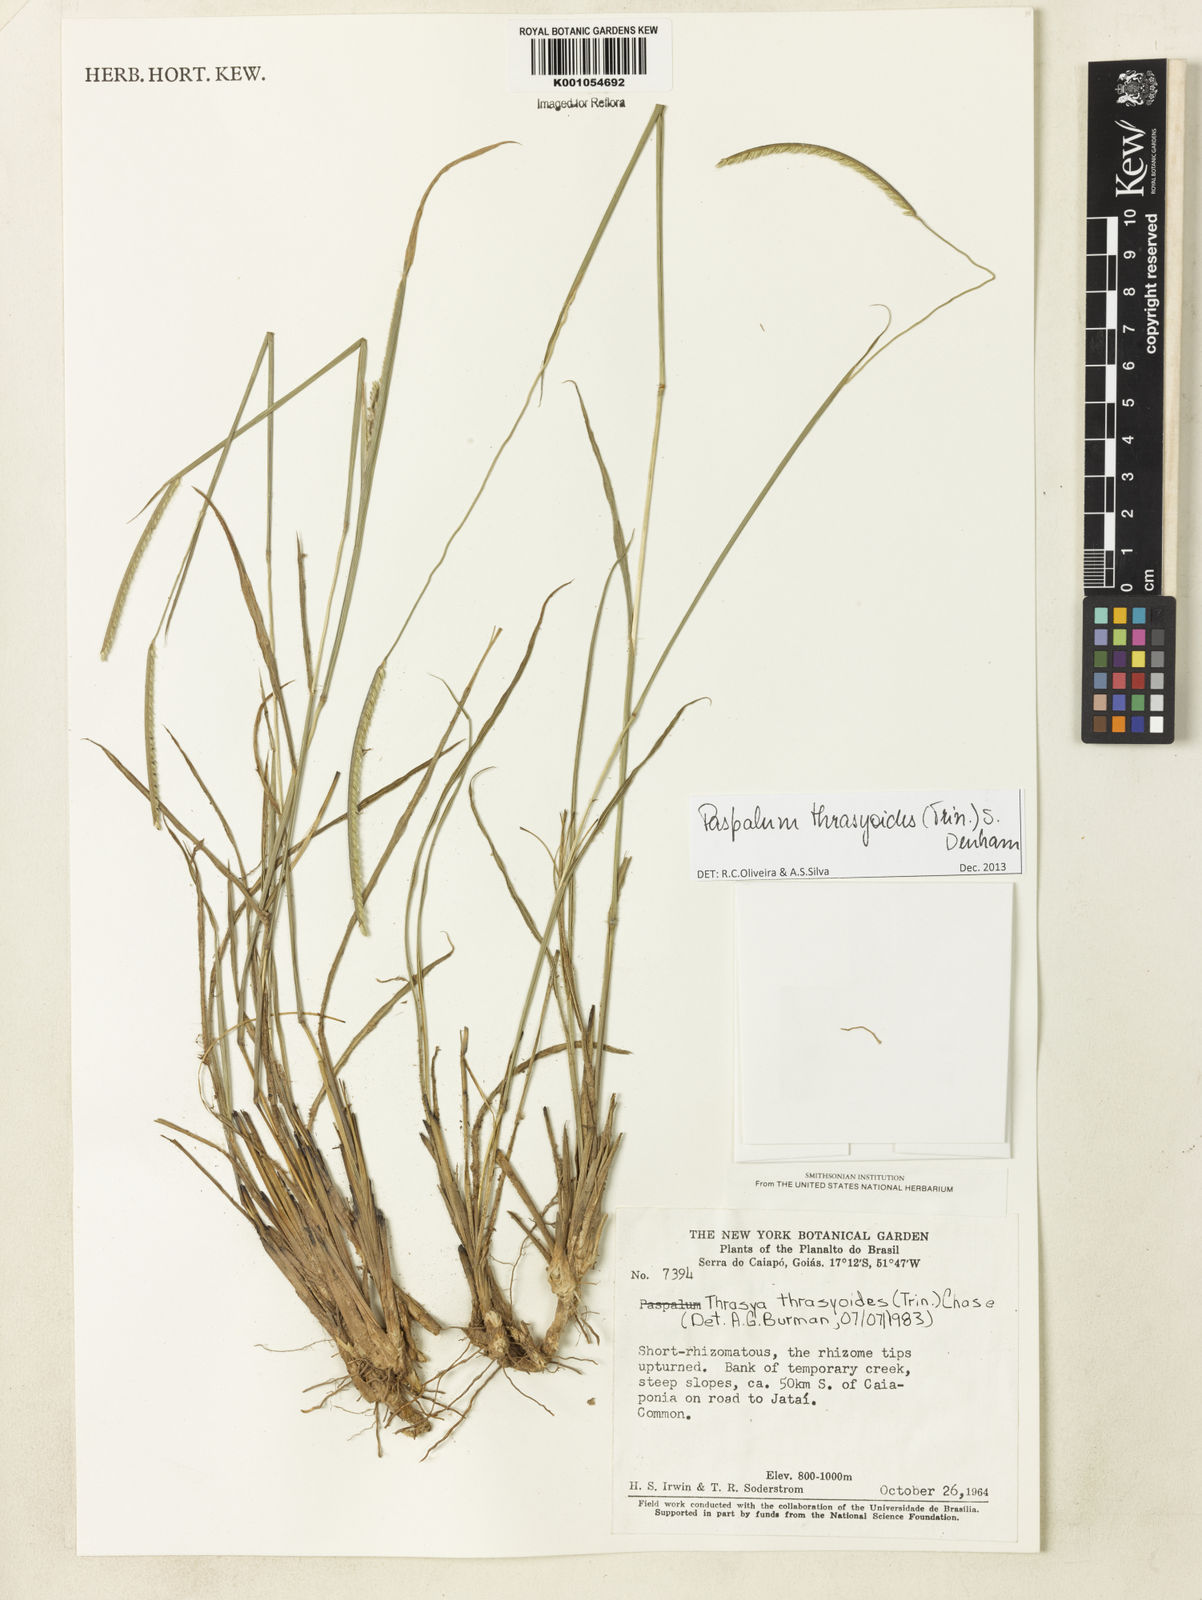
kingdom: Plantae
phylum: Tracheophyta
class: Liliopsida
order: Poales
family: Poaceae
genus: Paspalum
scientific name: Paspalum thrasyoides
